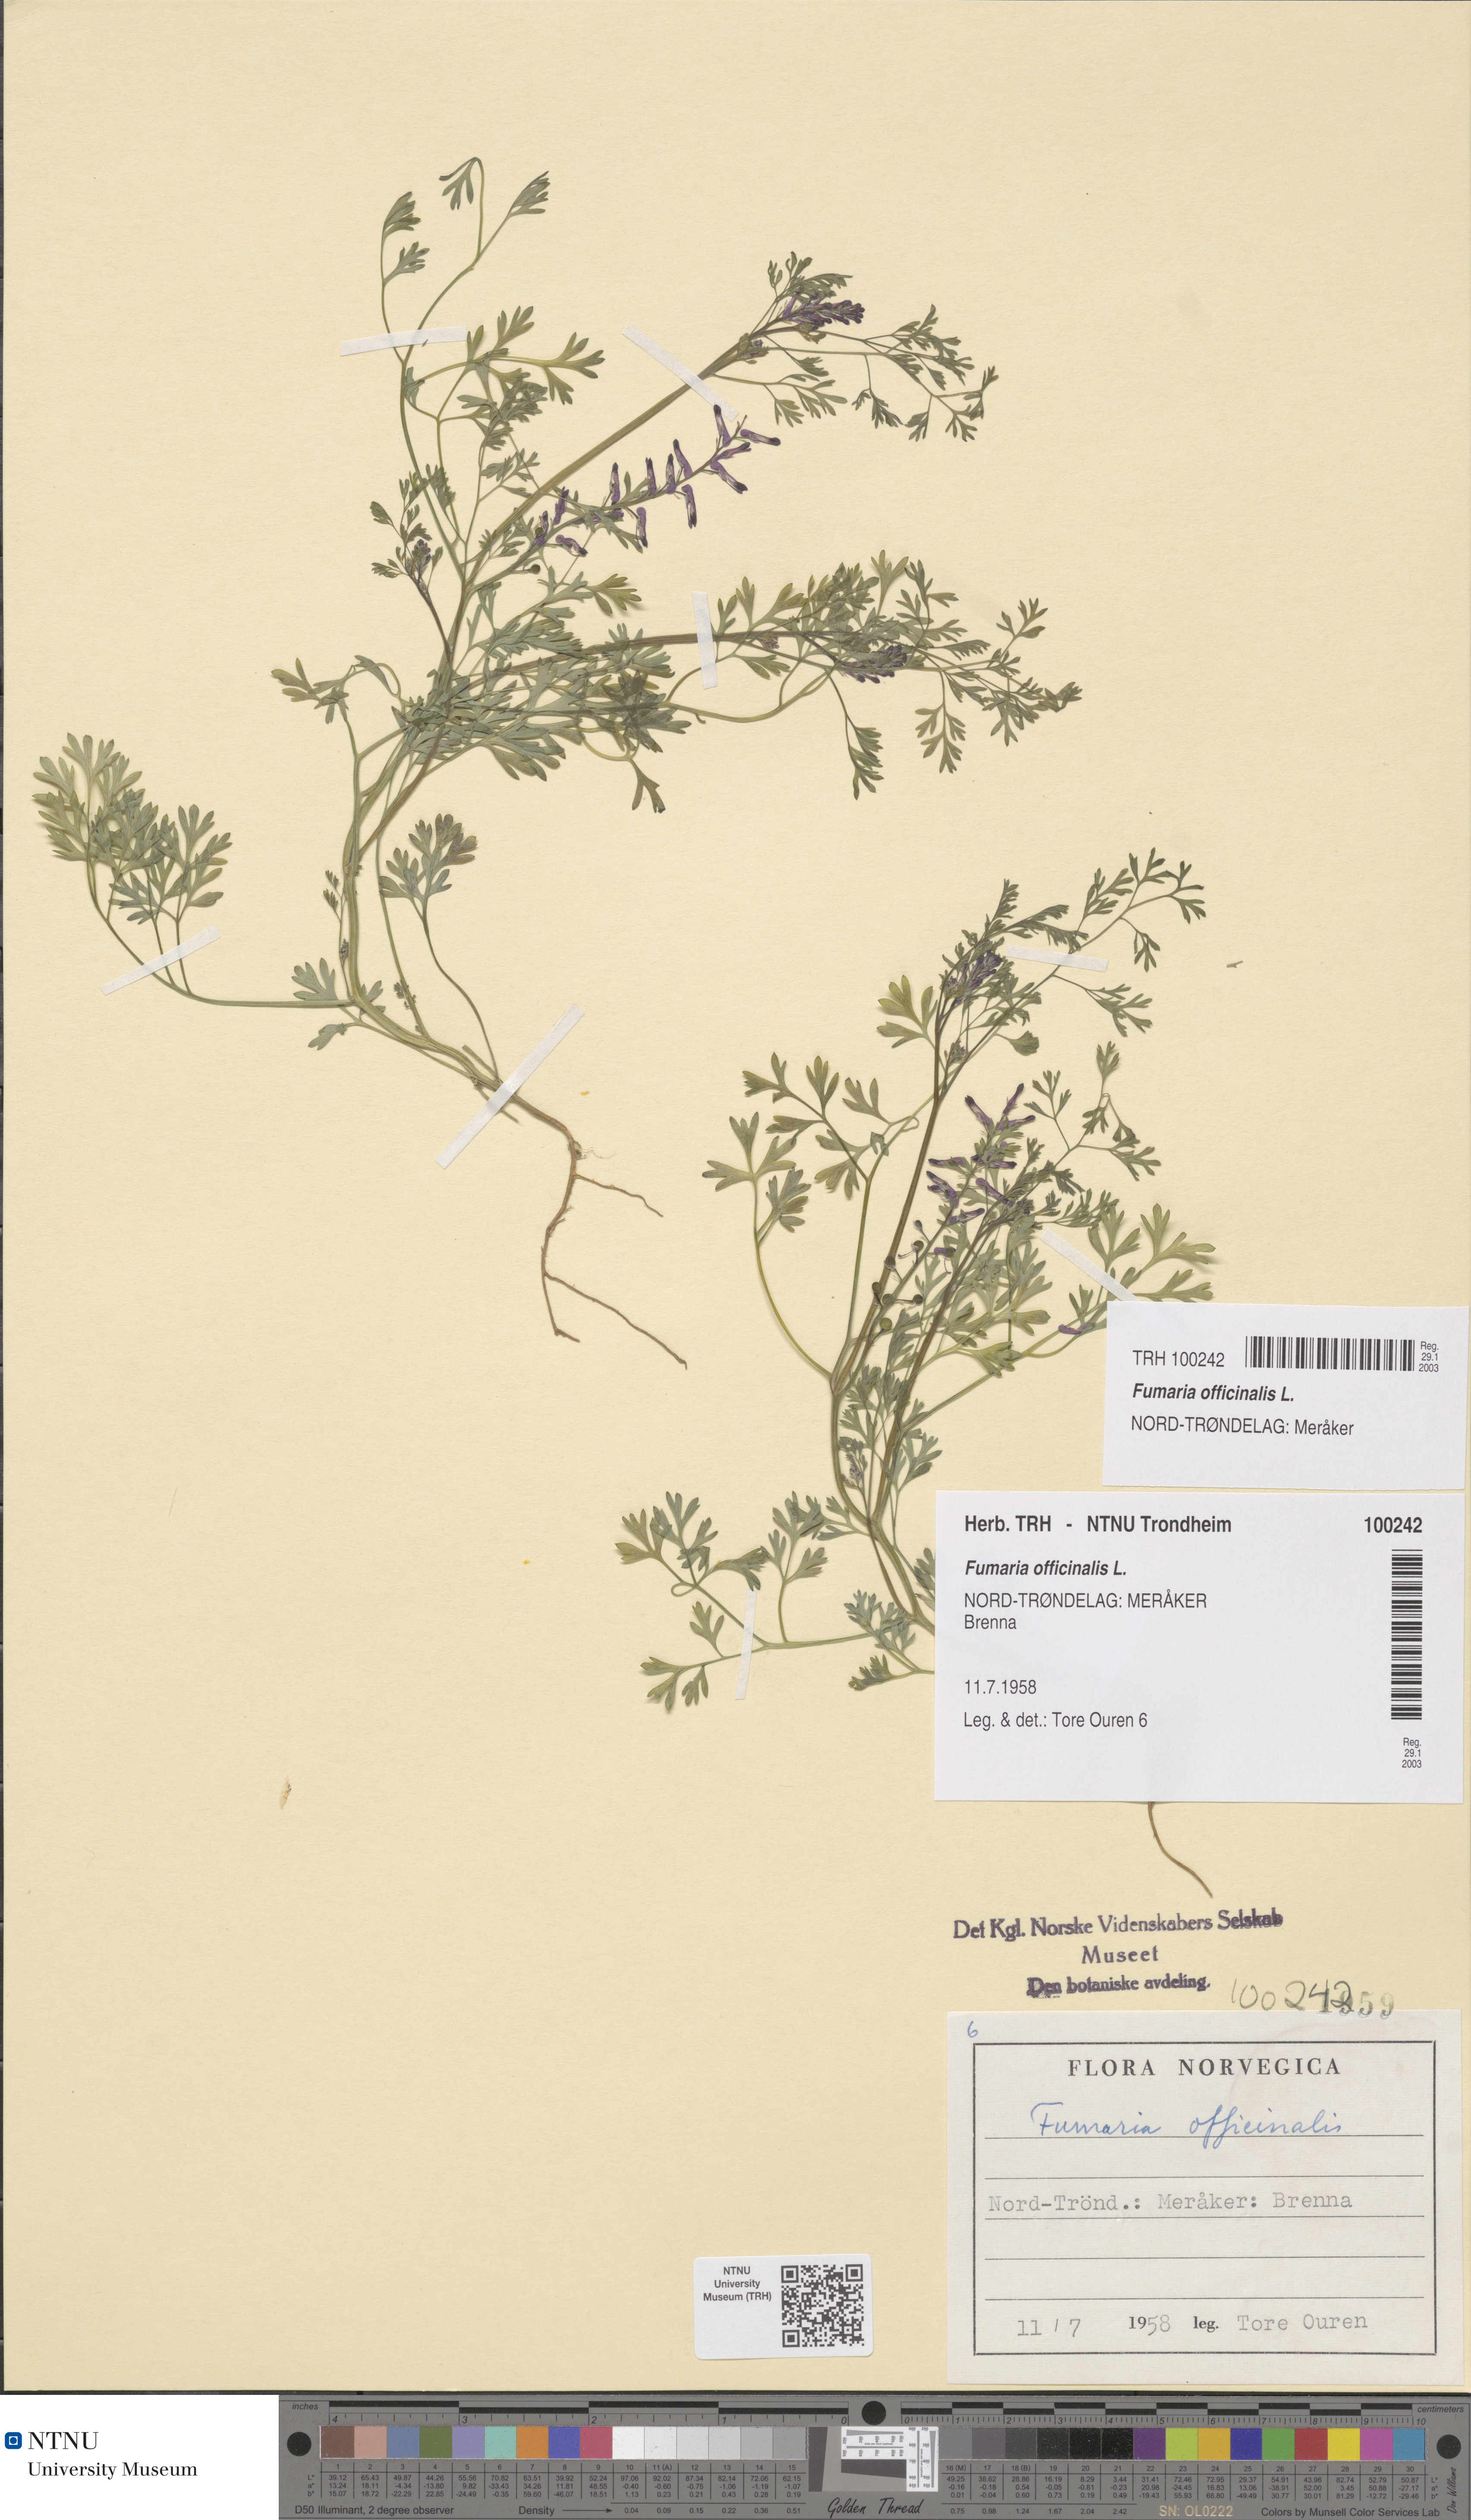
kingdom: Plantae
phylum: Tracheophyta
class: Magnoliopsida
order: Ranunculales
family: Papaveraceae
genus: Fumaria
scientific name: Fumaria officinalis
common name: Common fumitory
